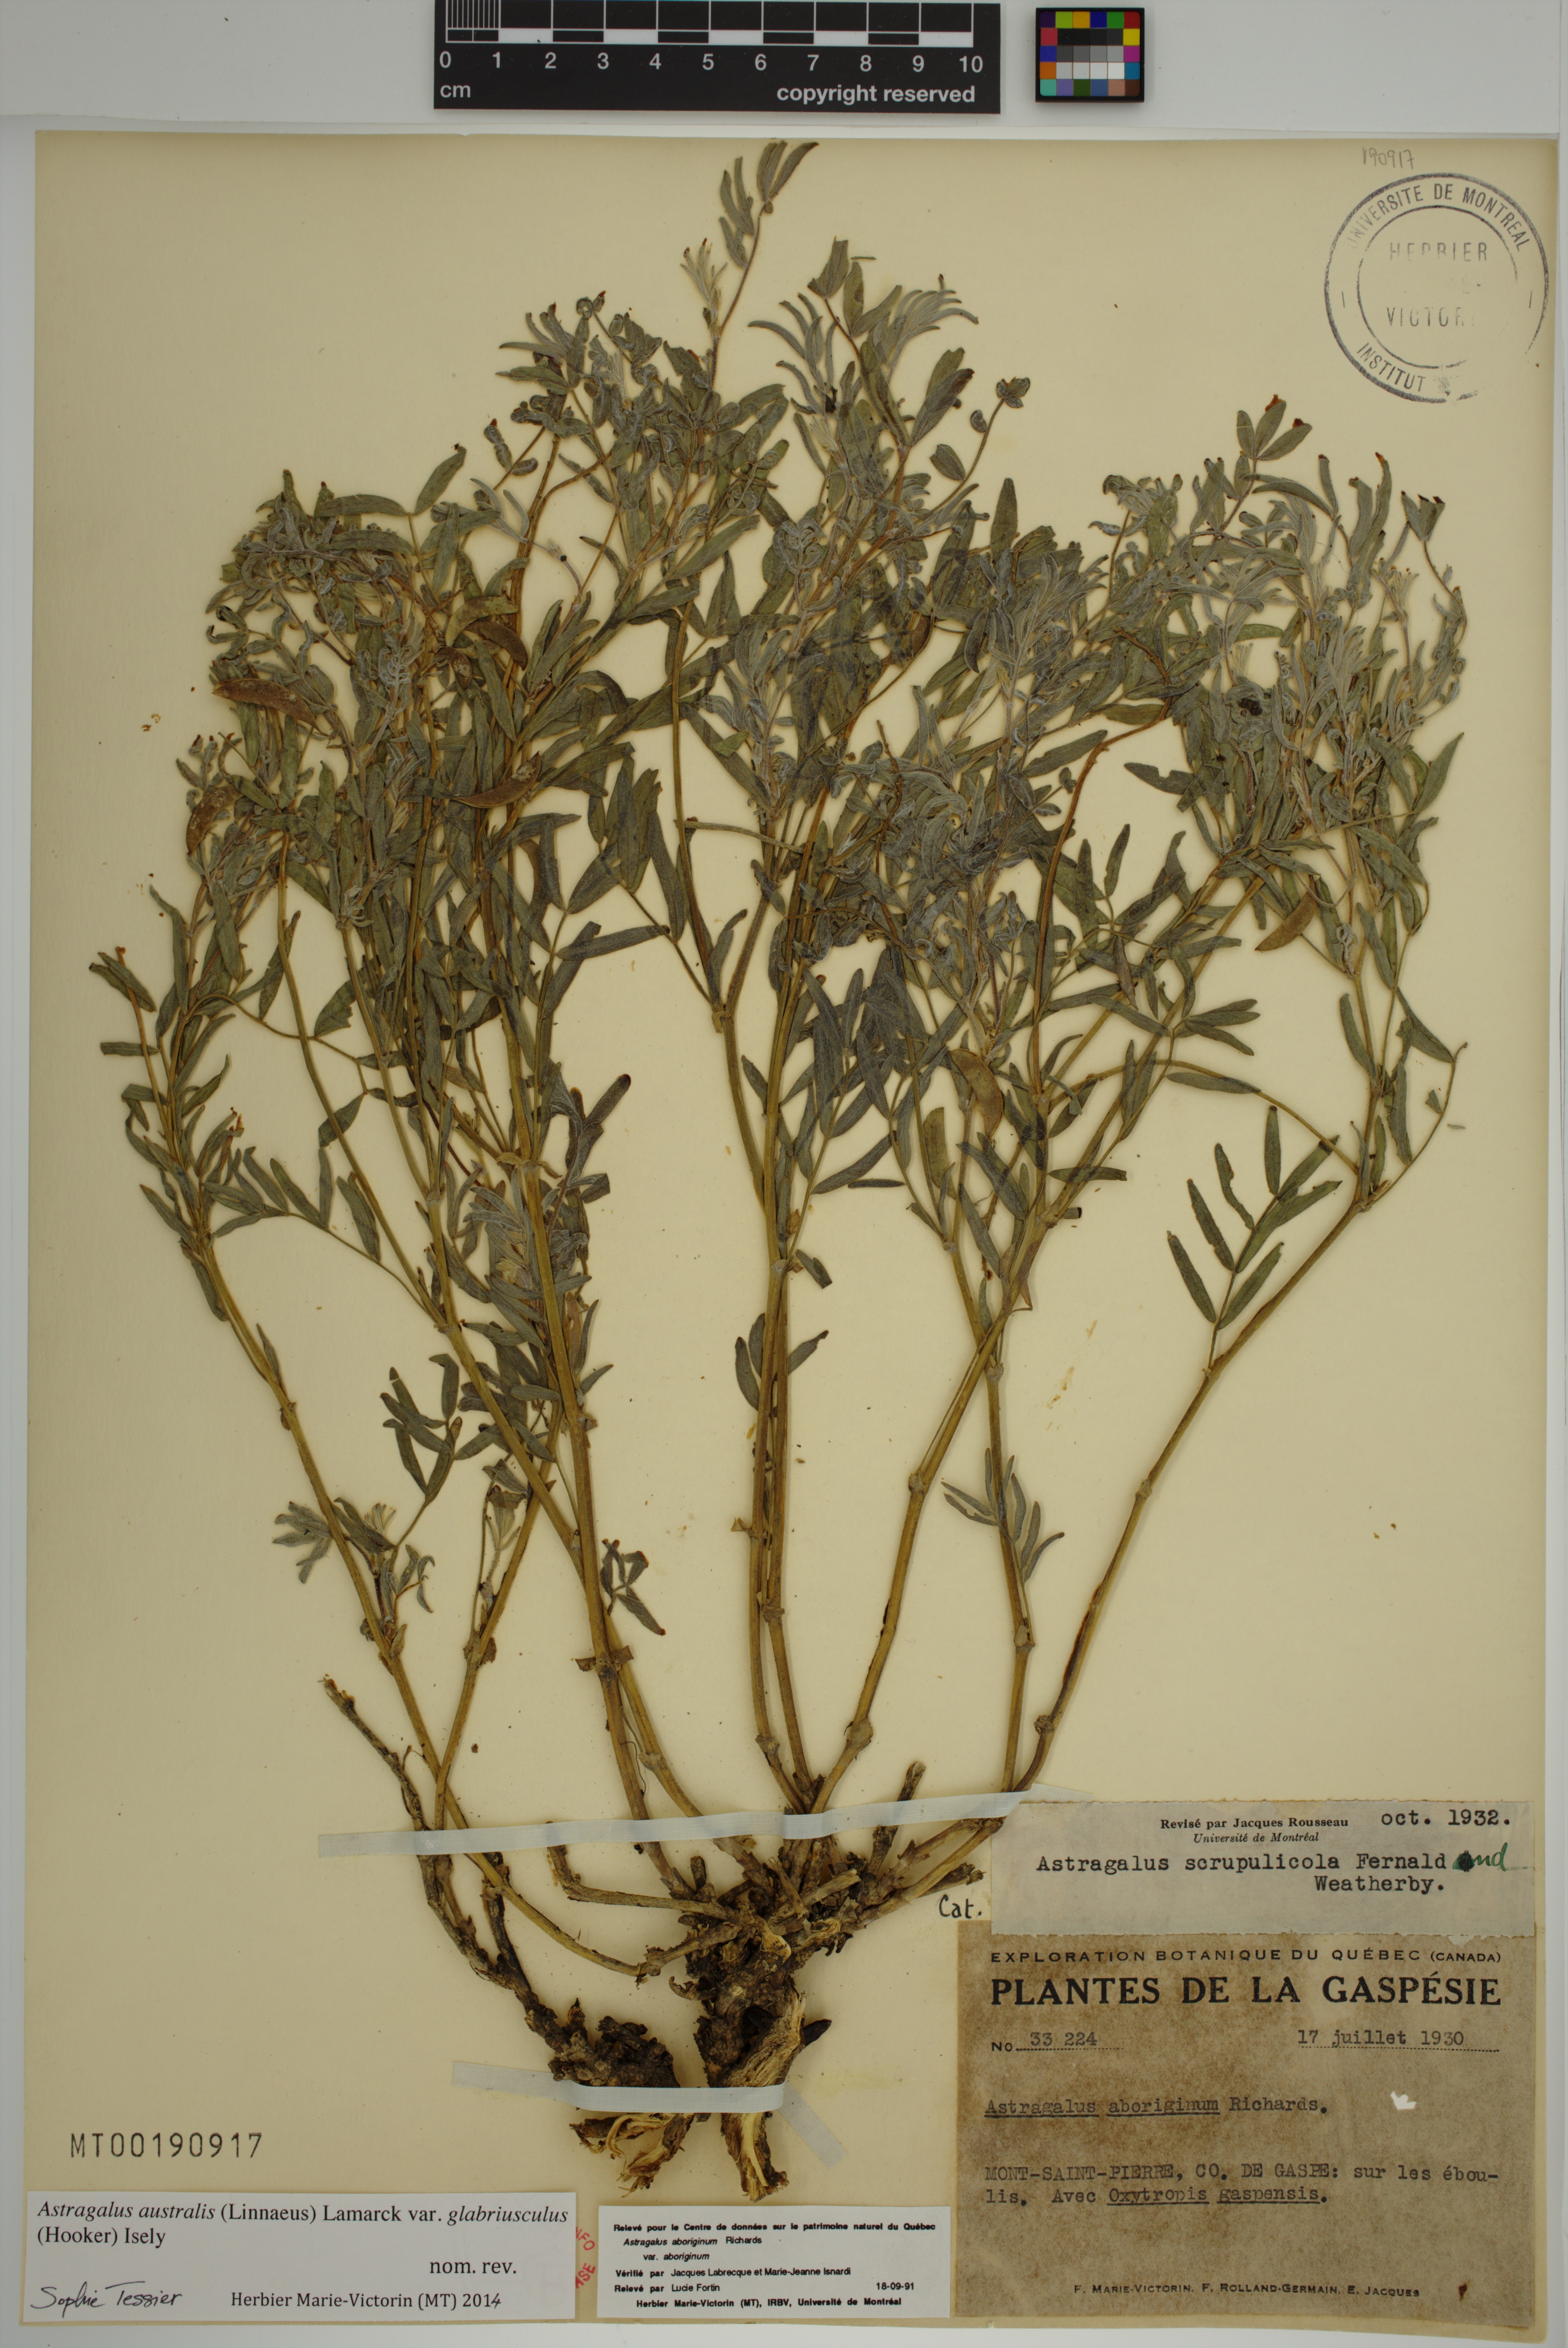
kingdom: Plantae
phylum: Tracheophyta
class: Magnoliopsida
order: Fabales
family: Fabaceae
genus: Astragalus
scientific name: Astragalus aboriginorum
